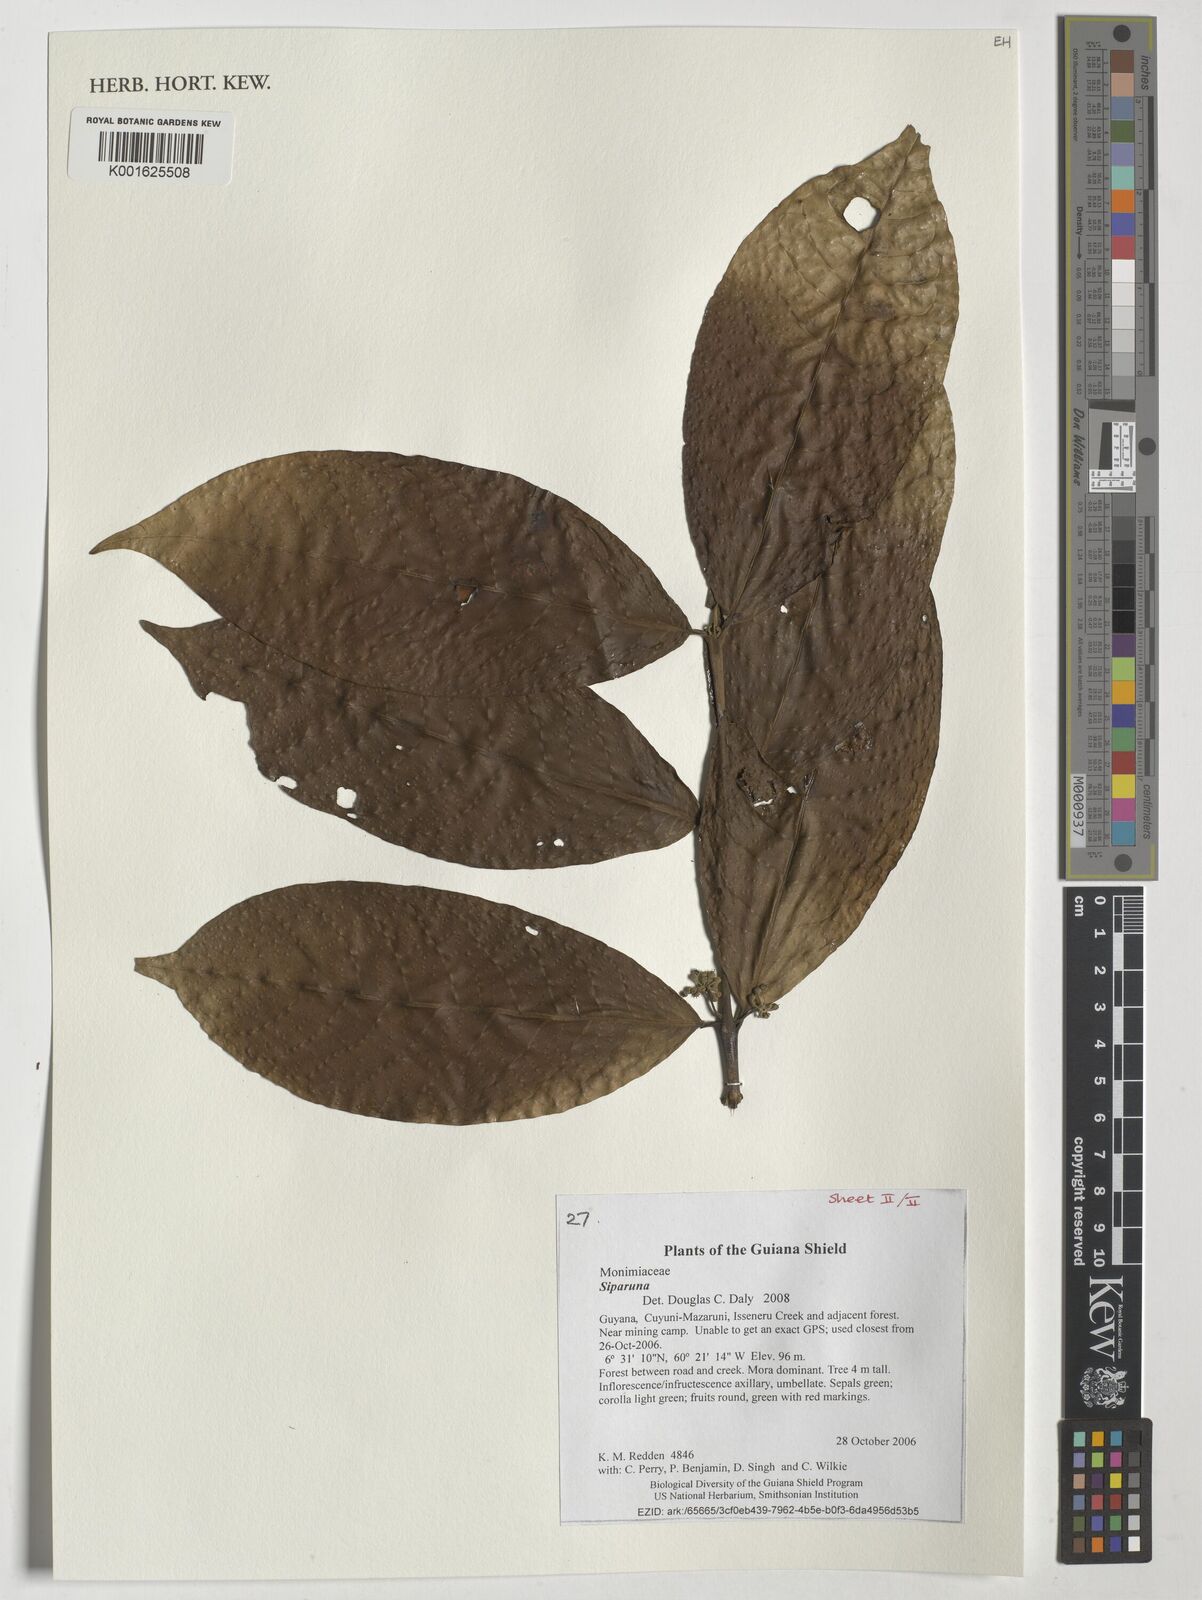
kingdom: Plantae
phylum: Tracheophyta
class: Magnoliopsida
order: Laurales
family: Siparunaceae
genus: Siparuna
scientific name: Siparuna
